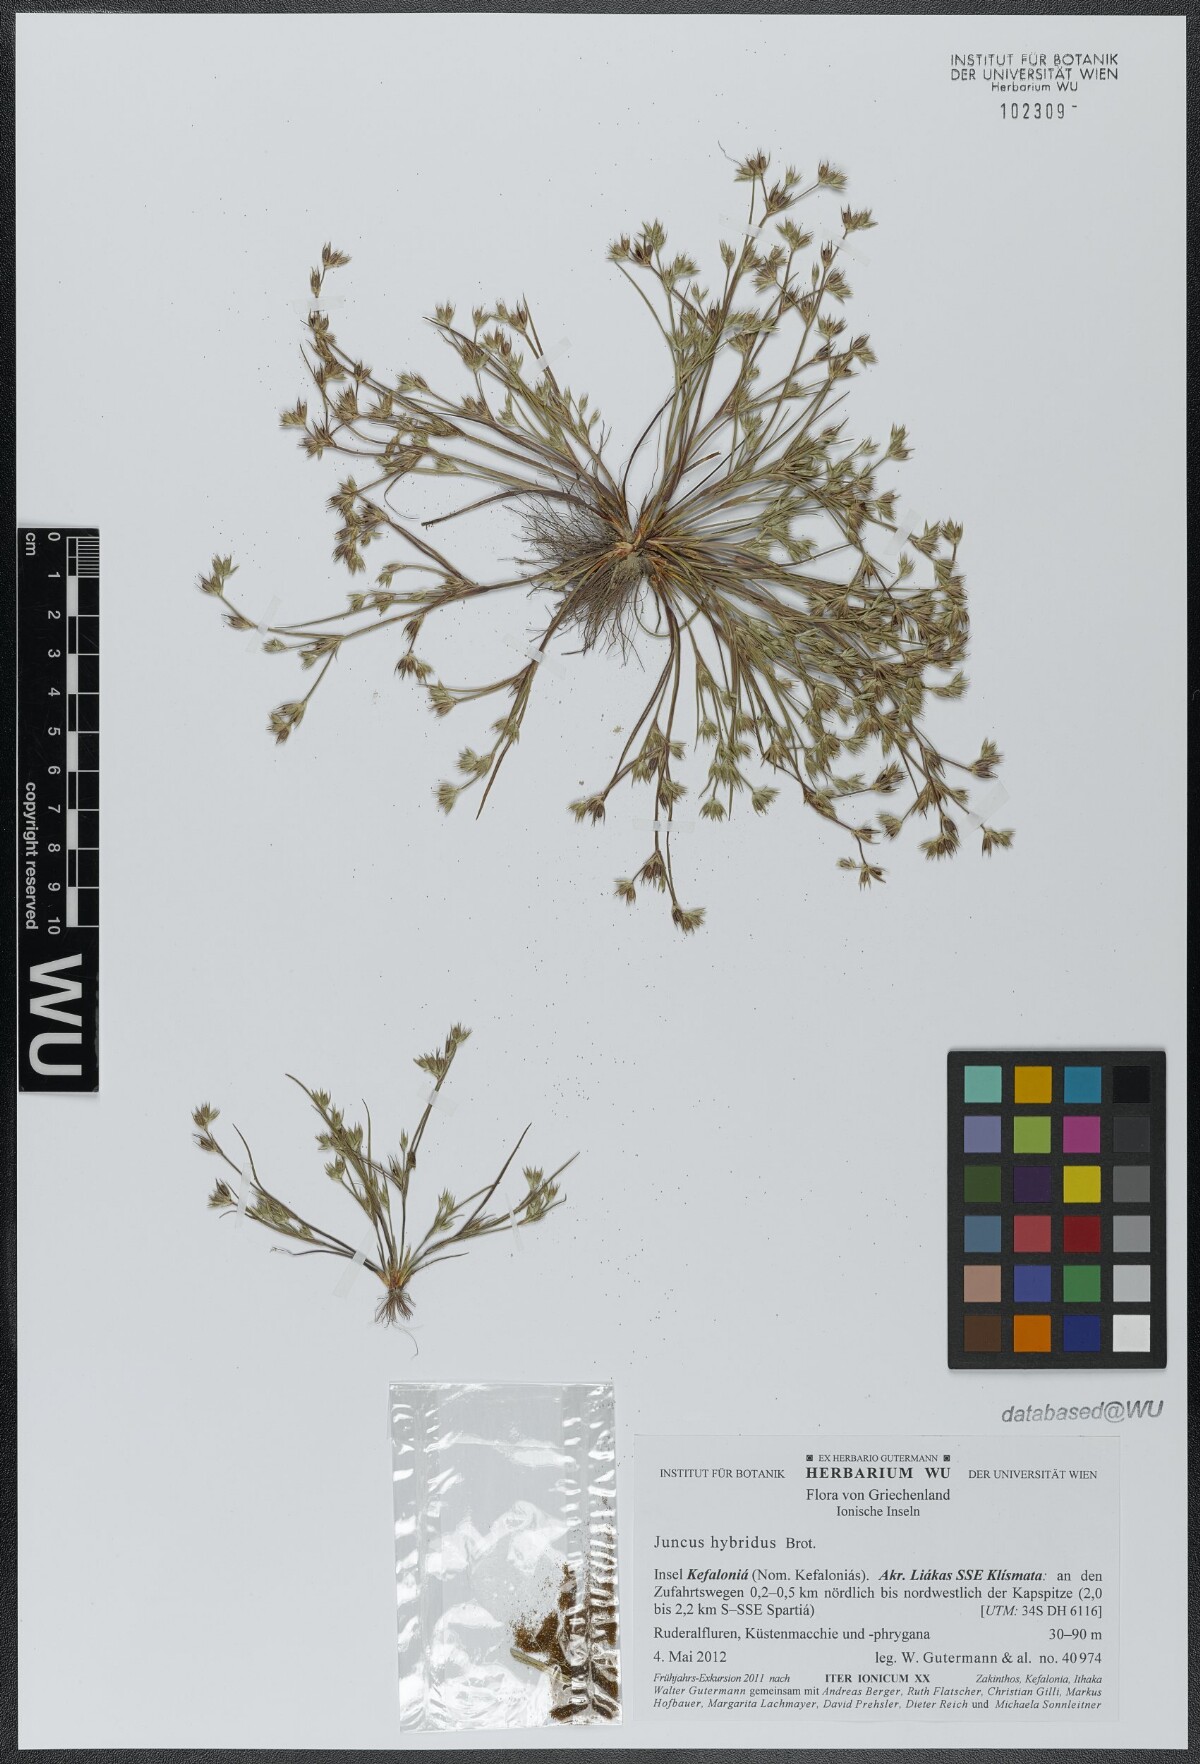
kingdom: Plantae
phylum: Tracheophyta
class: Liliopsida
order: Poales
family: Juncaceae
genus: Juncus
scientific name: Juncus hybridus
